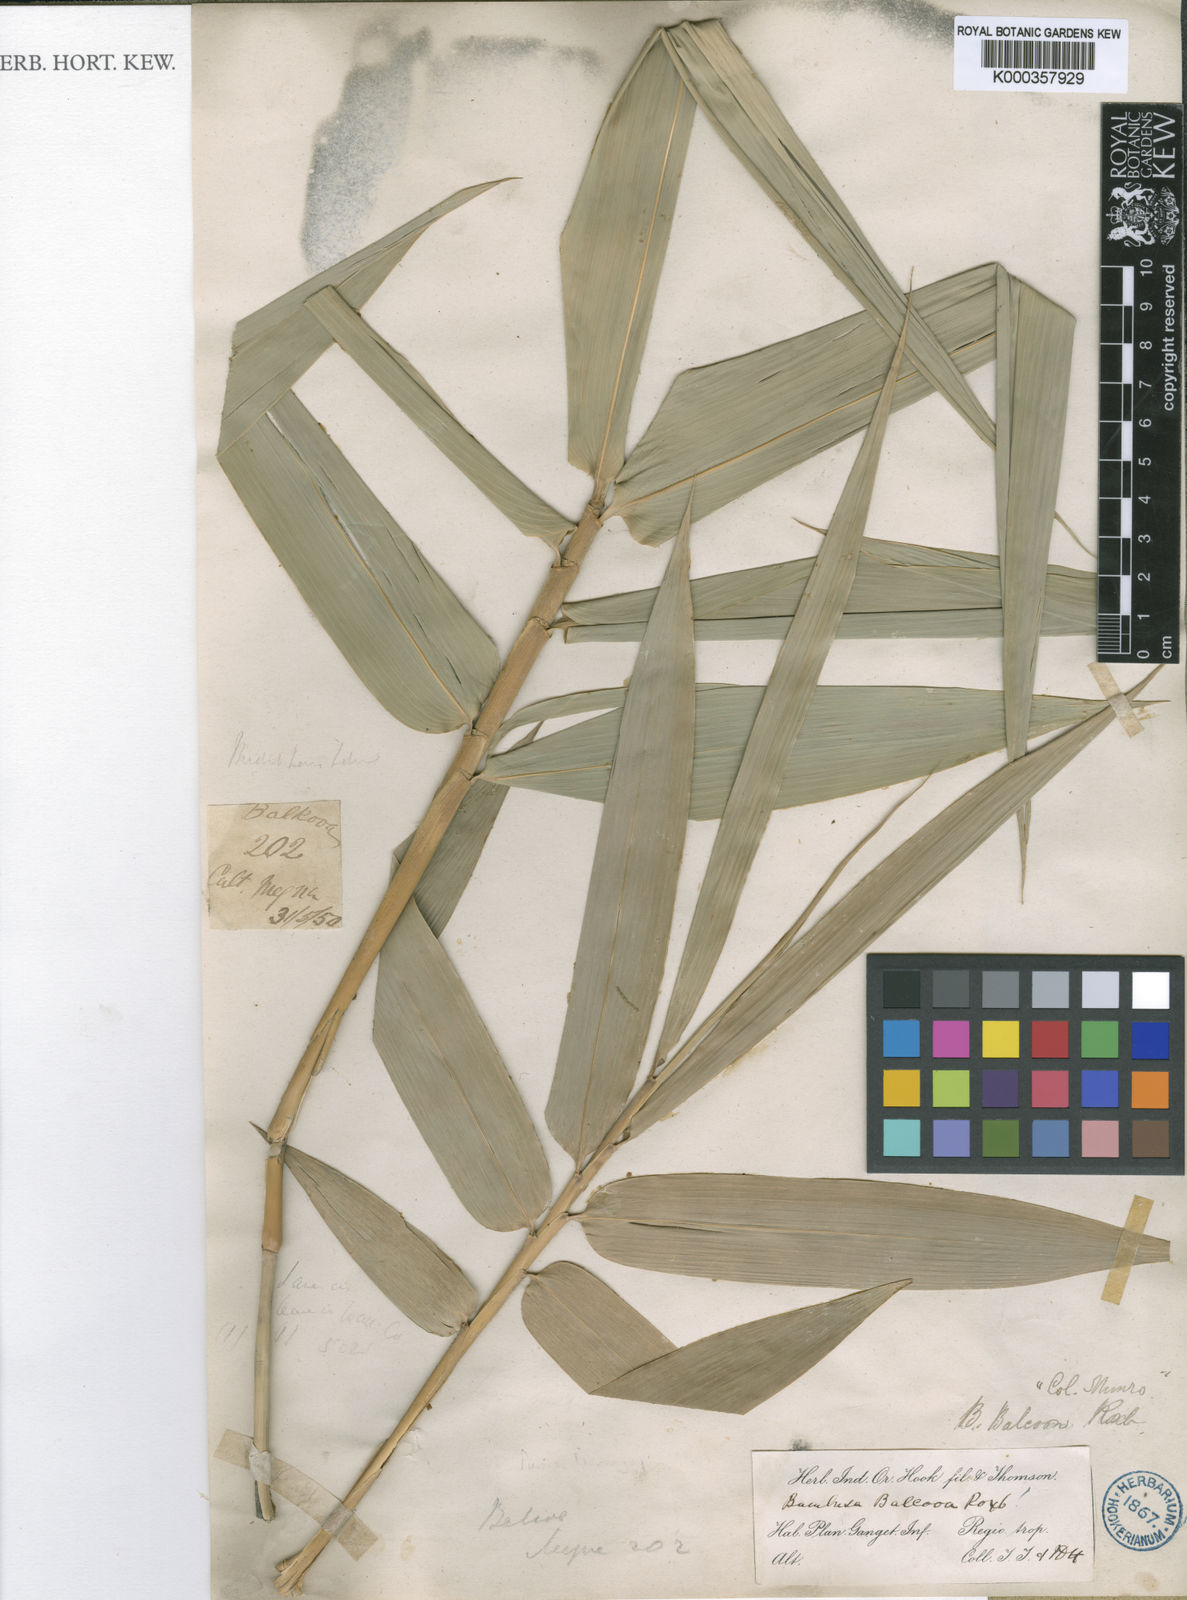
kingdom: Plantae
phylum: Tracheophyta
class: Liliopsida
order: Poales
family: Poaceae
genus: Bambusa
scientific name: Bambusa balcooa
